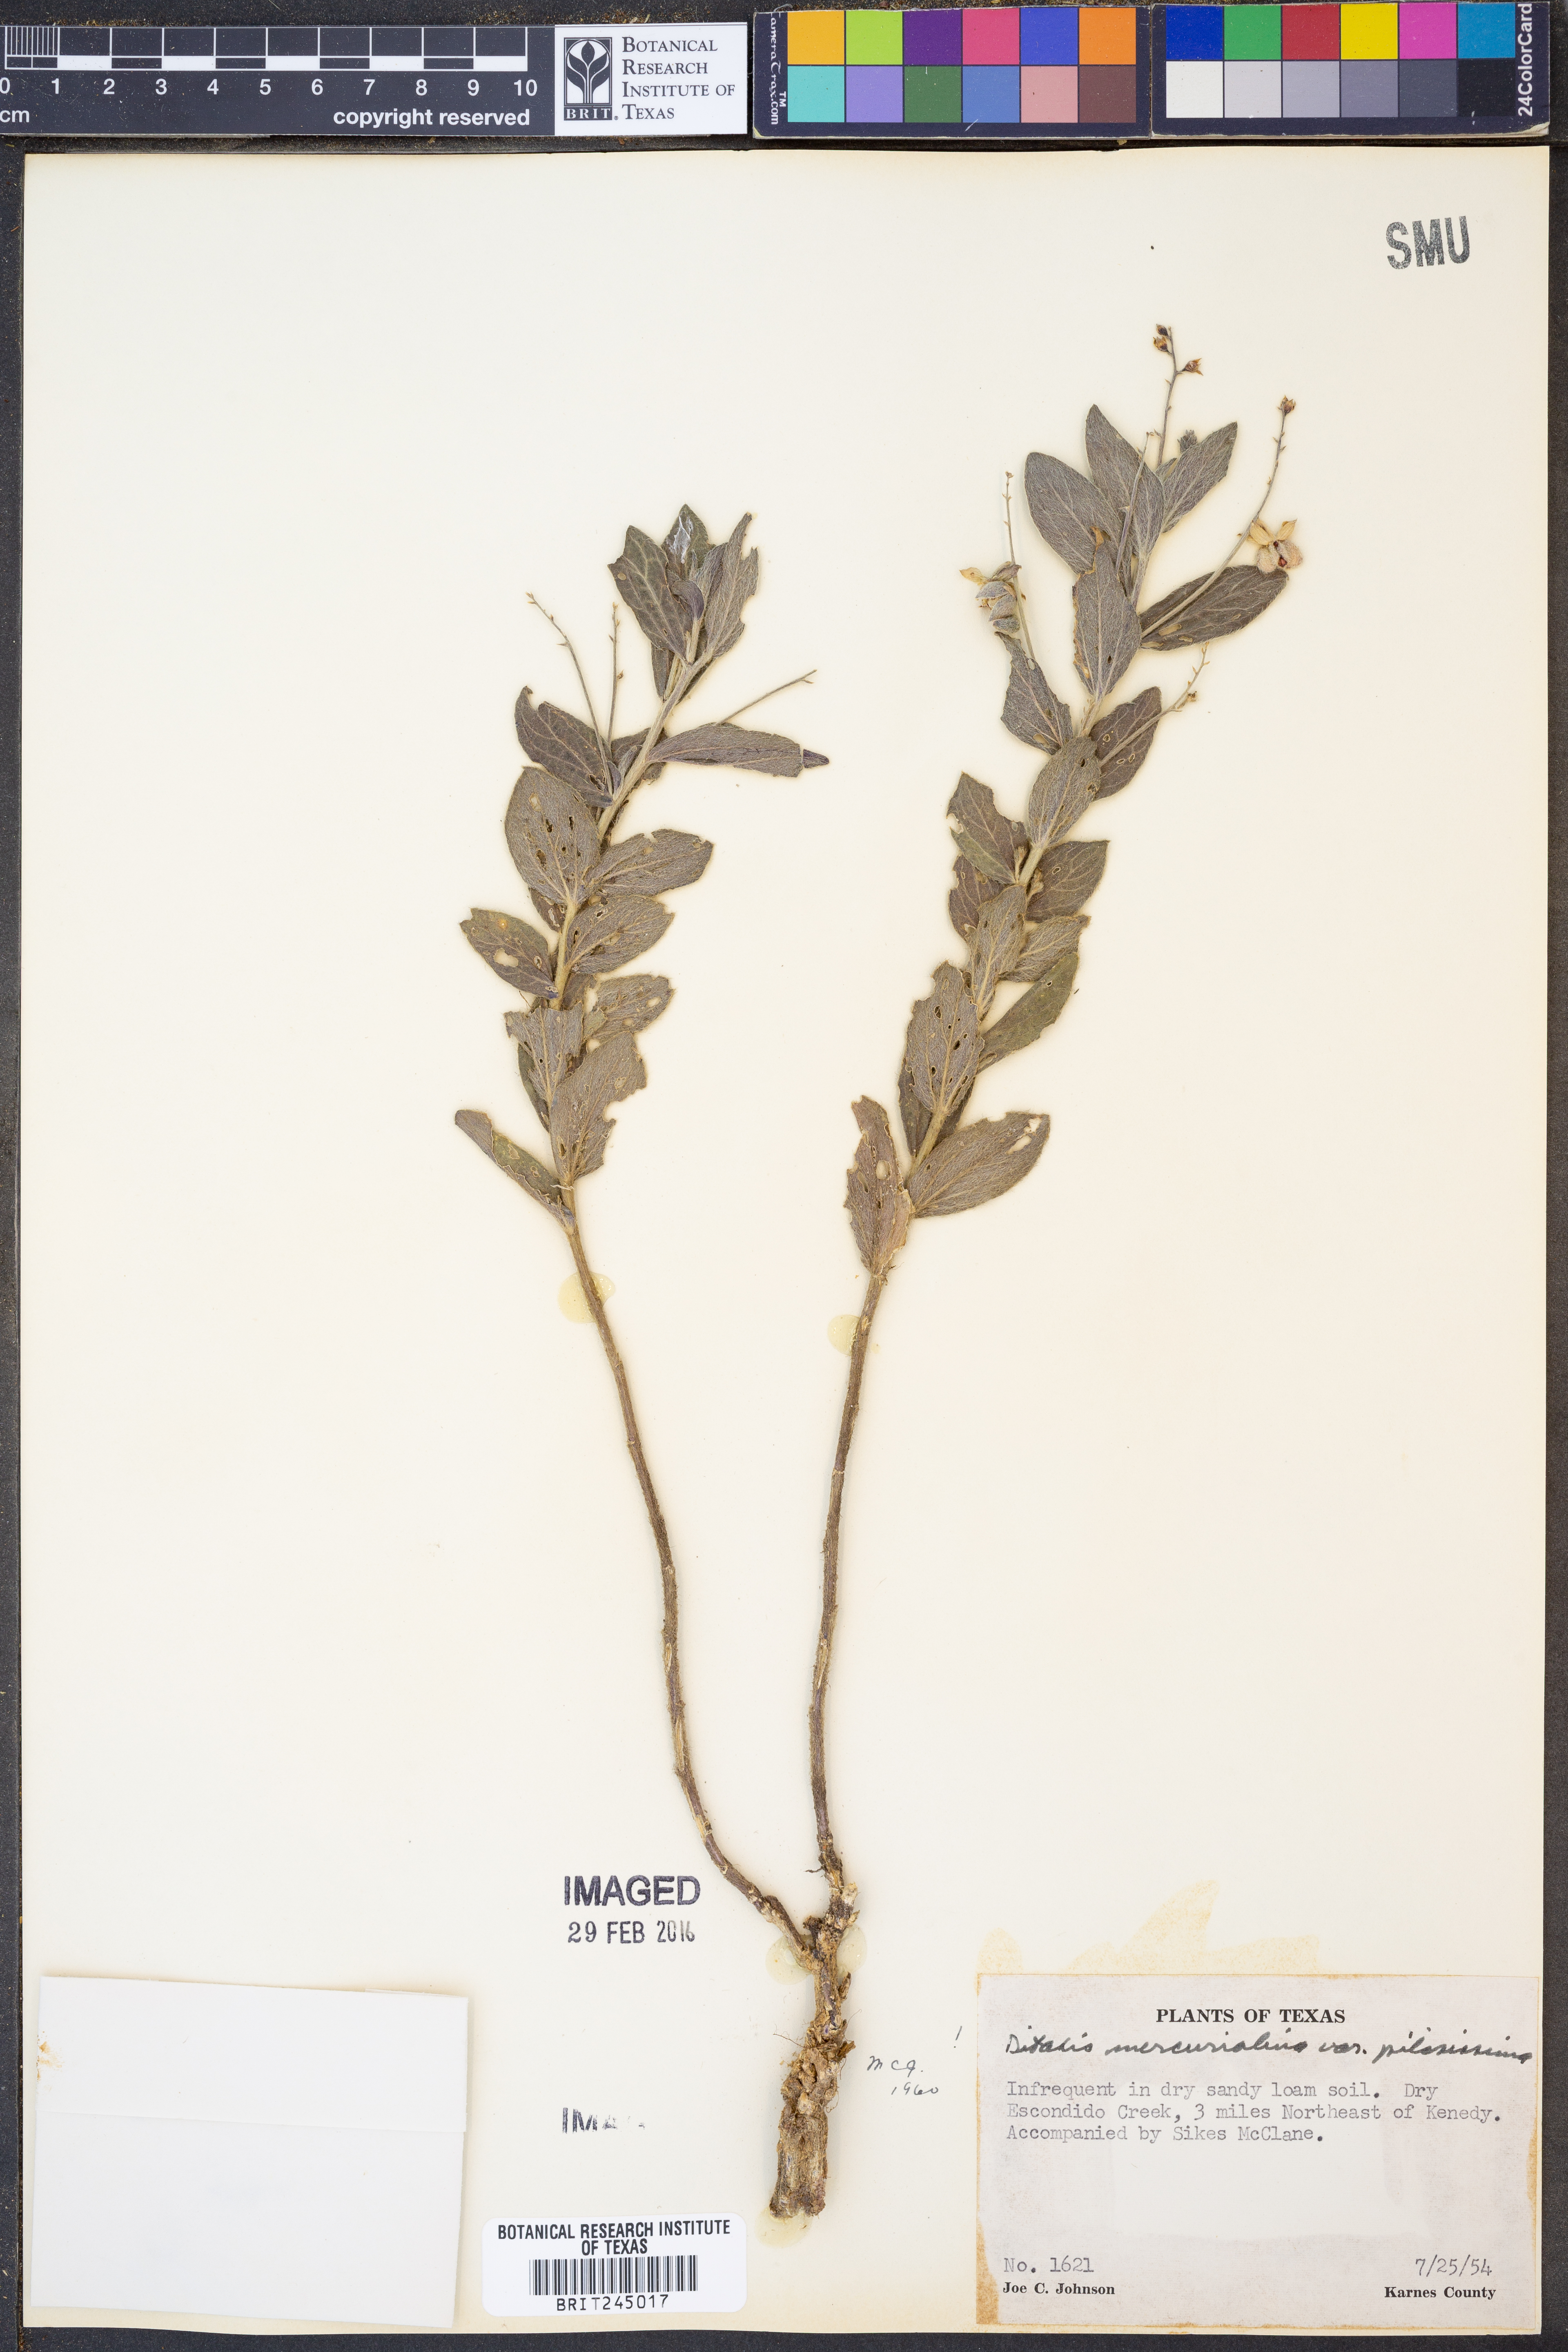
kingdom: Plantae
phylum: Tracheophyta
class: Magnoliopsida
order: Malpighiales
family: Euphorbiaceae
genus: Ditaxis
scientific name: Ditaxis mercurialina
